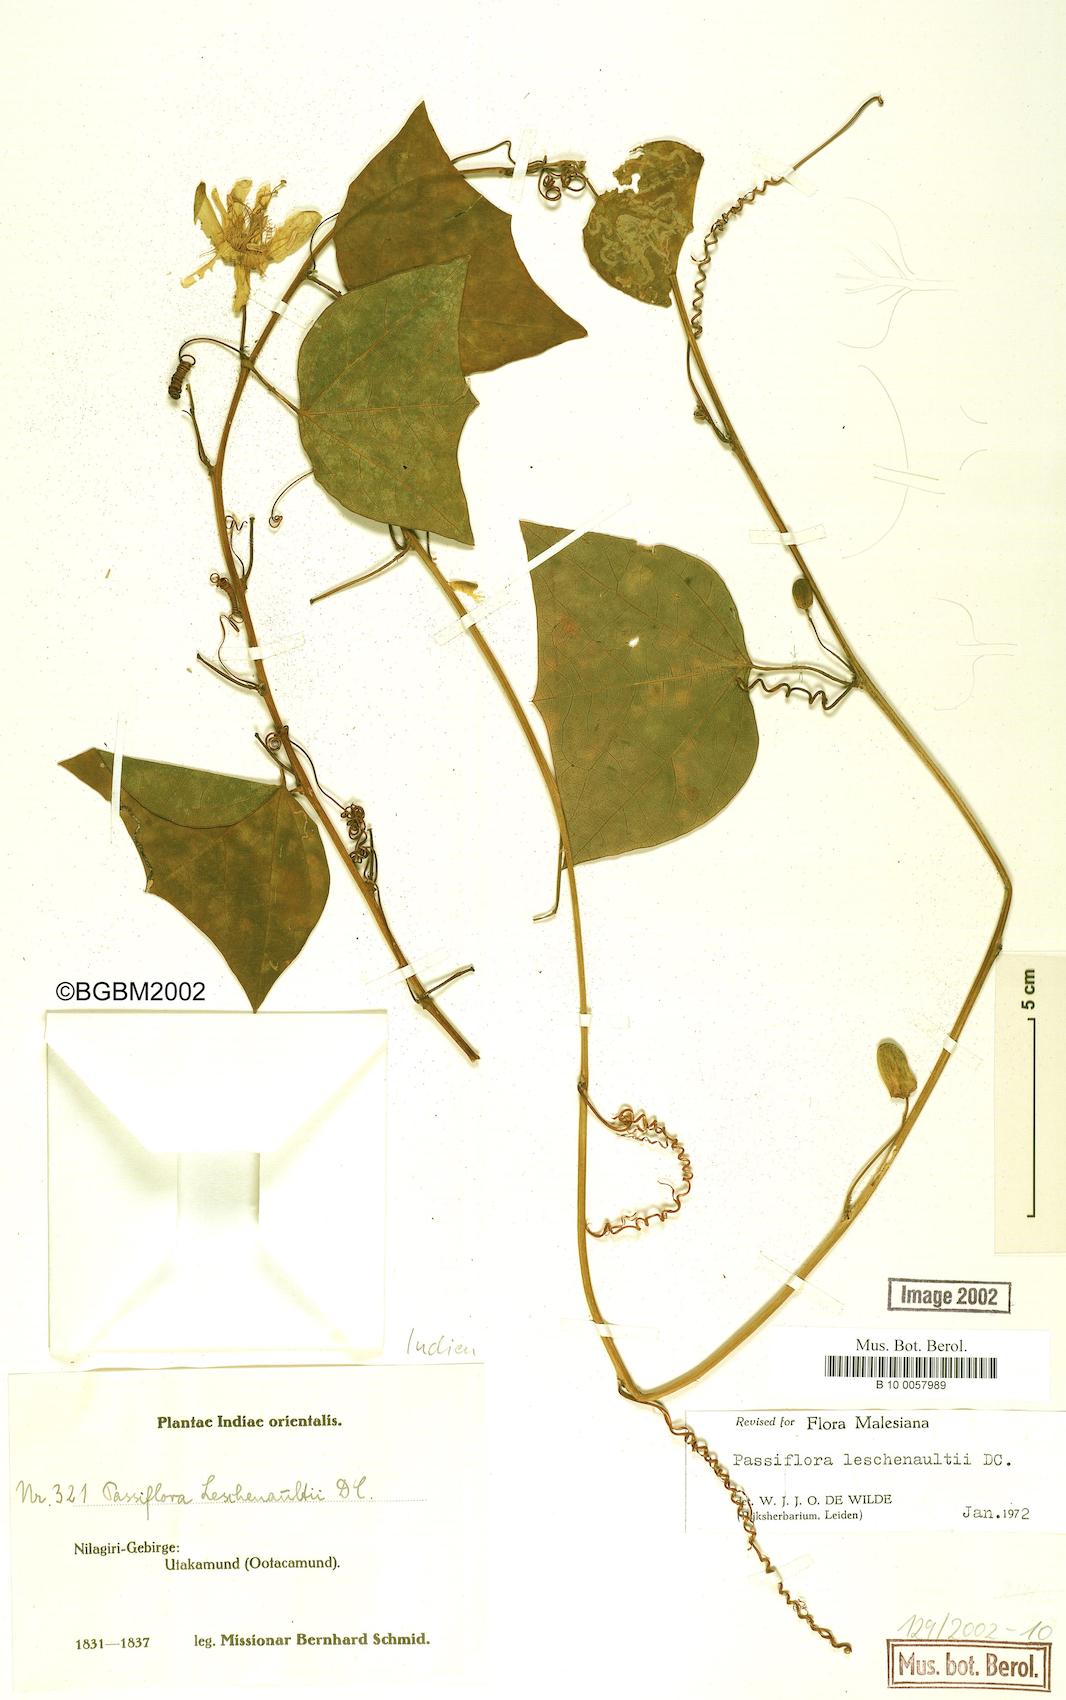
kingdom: Plantae
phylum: Tracheophyta
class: Magnoliopsida
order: Malpighiales
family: Passifloraceae
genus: Passiflora
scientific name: Passiflora leschenaultii
